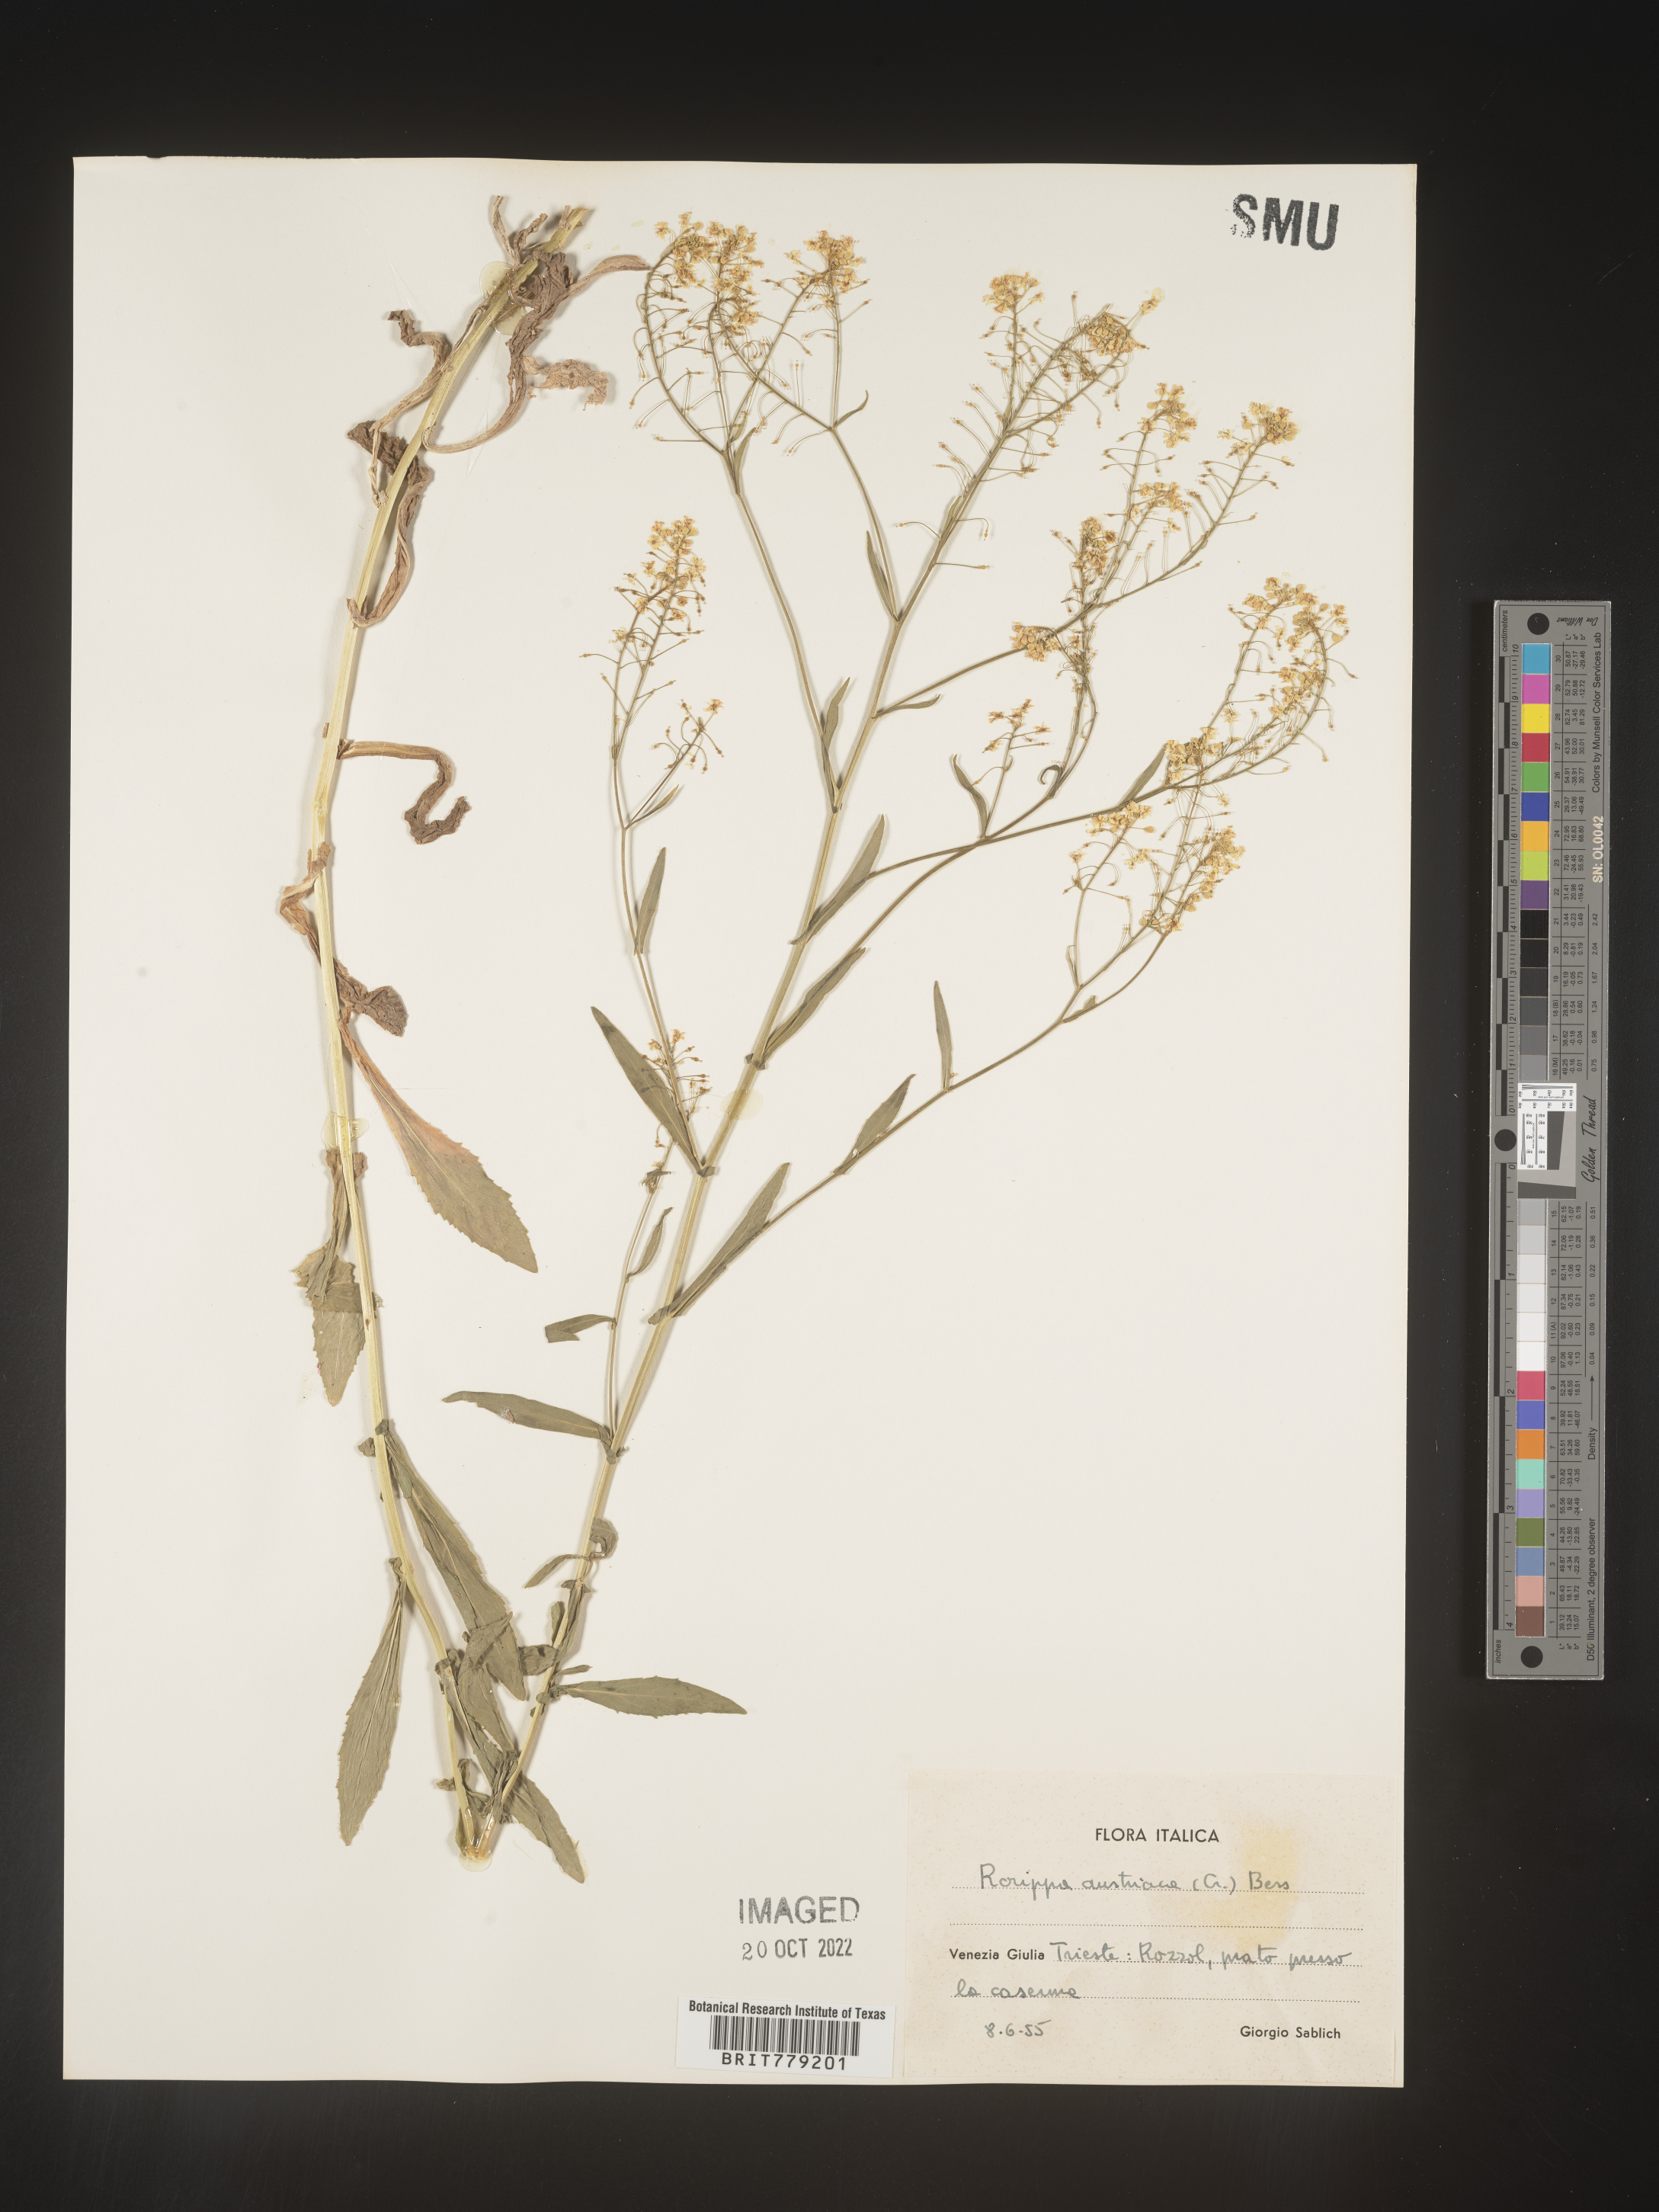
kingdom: Plantae
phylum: Tracheophyta
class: Magnoliopsida
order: Brassicales
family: Brassicaceae
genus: Rorippa
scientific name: Rorippa
